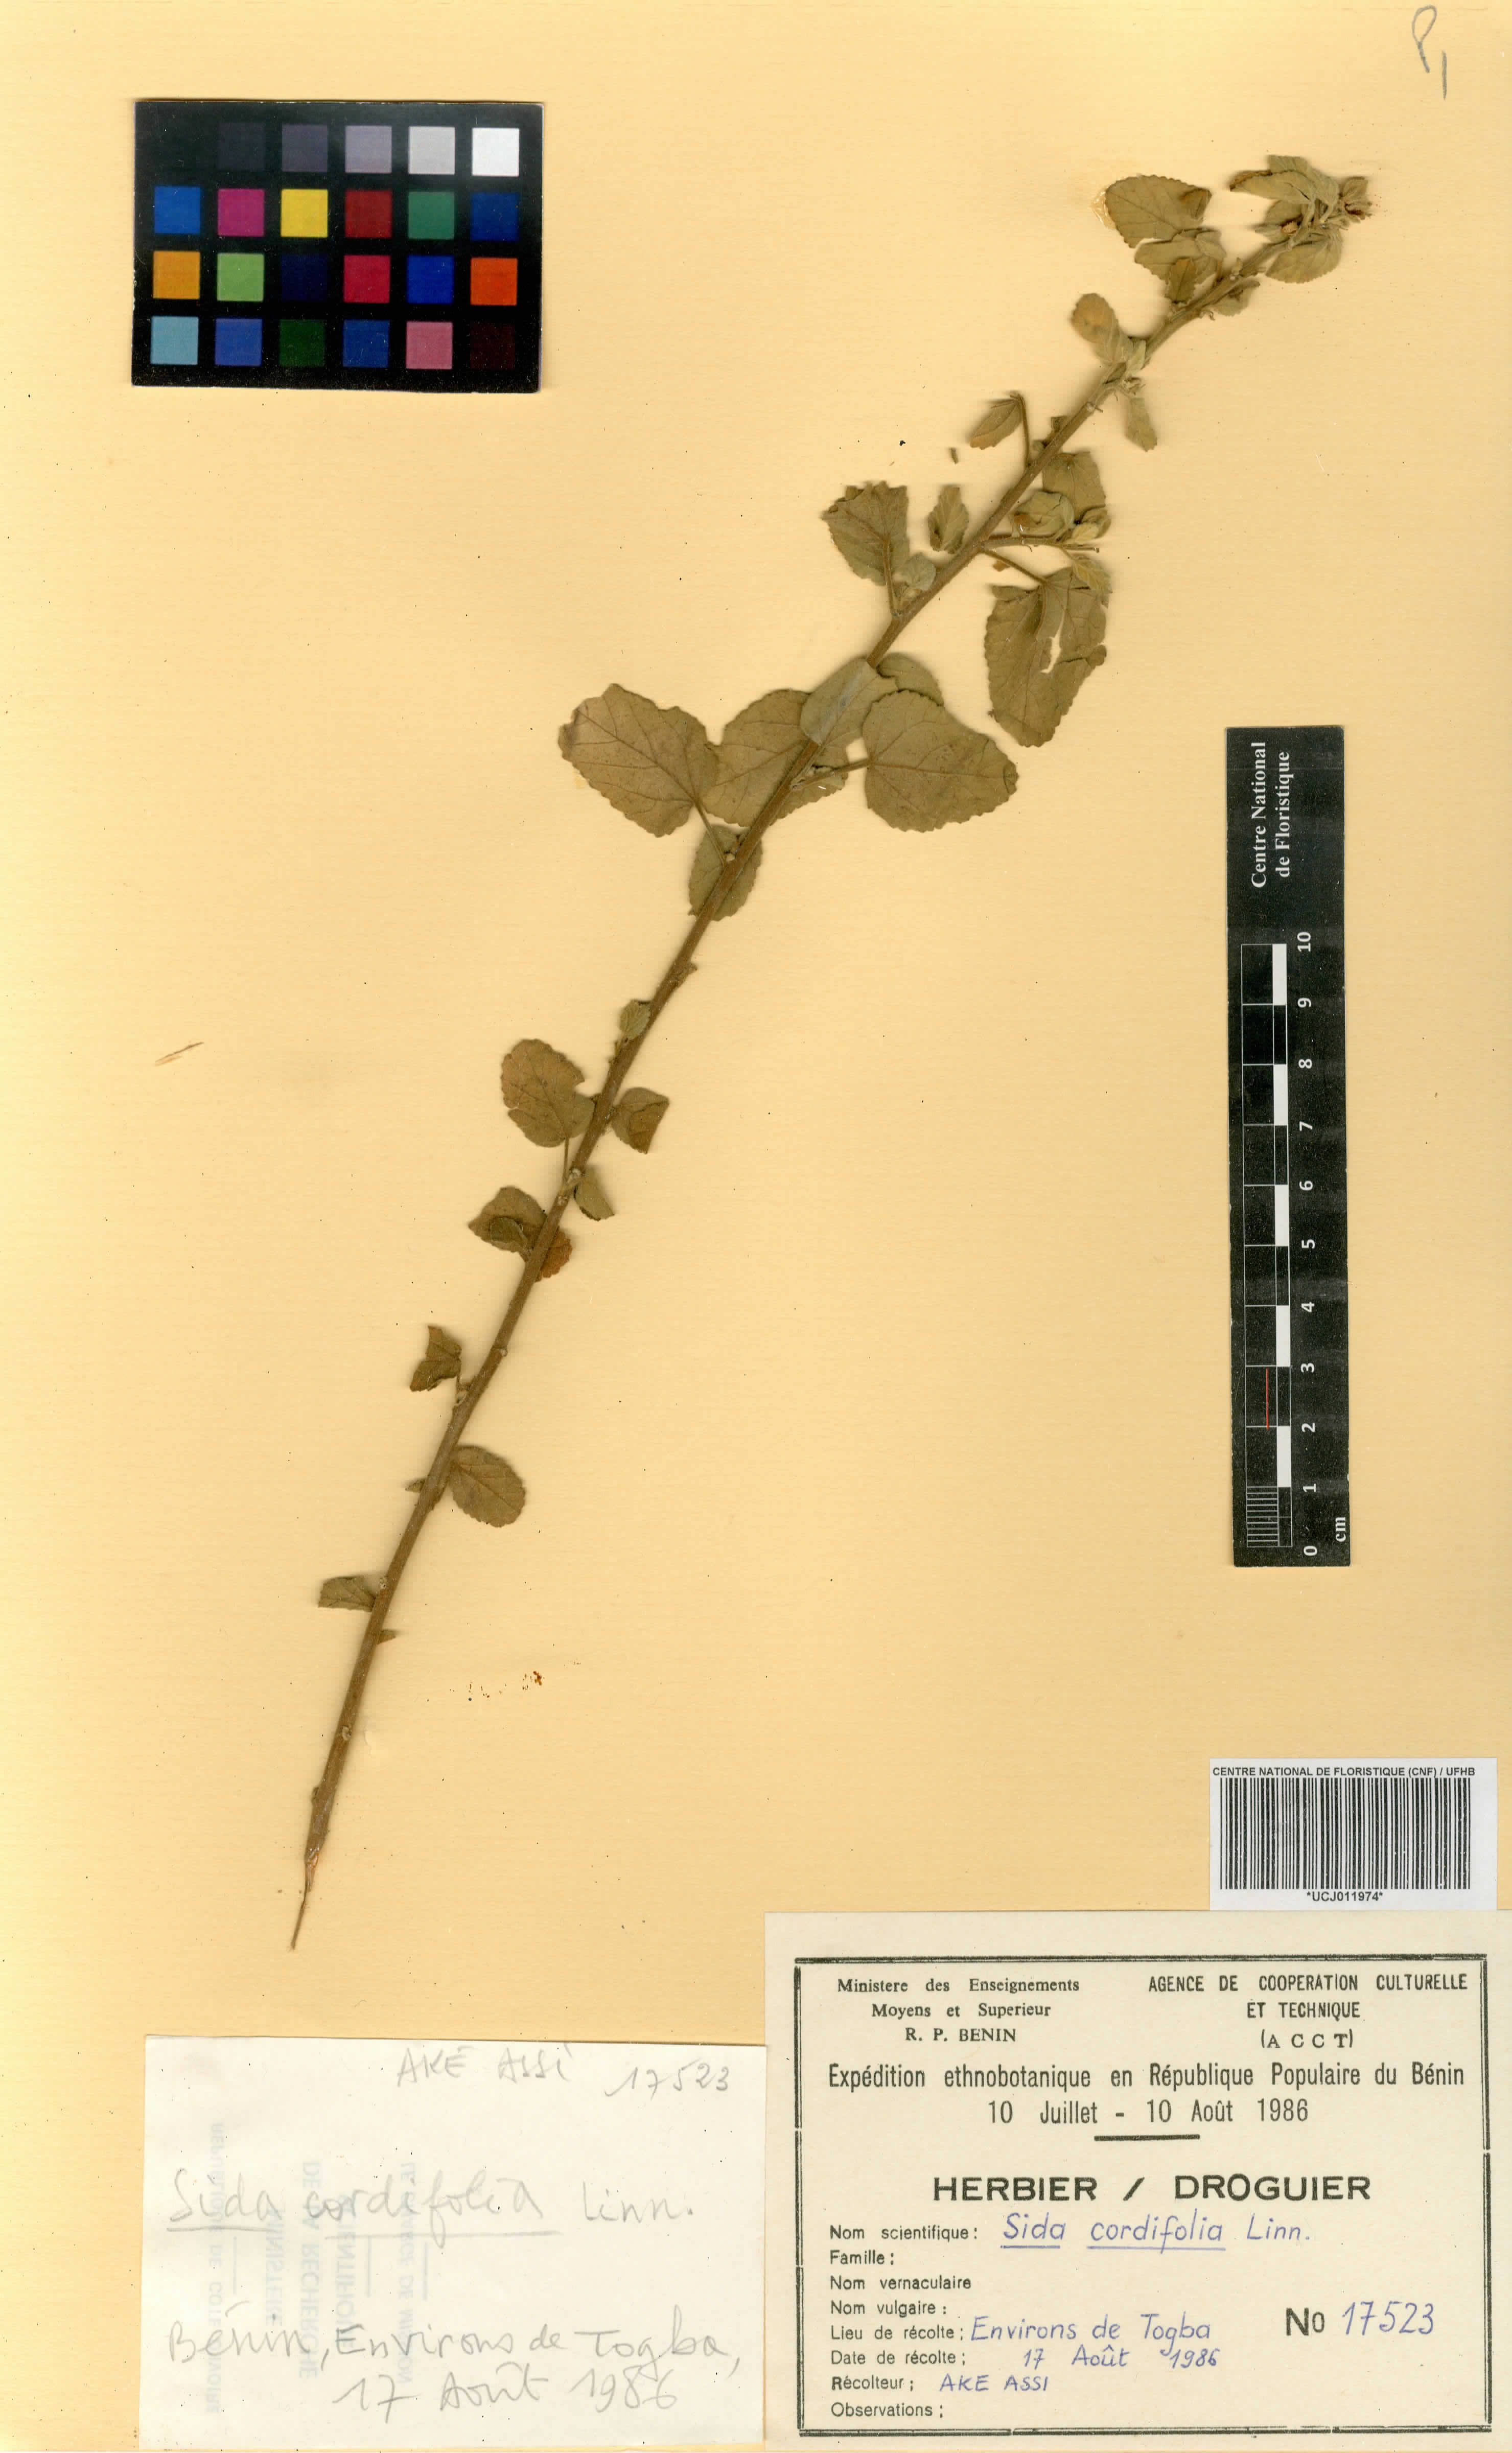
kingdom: Plantae
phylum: Tracheophyta
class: Magnoliopsida
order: Malvales
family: Malvaceae
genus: Sida
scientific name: Sida cordifolia
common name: Ilima
